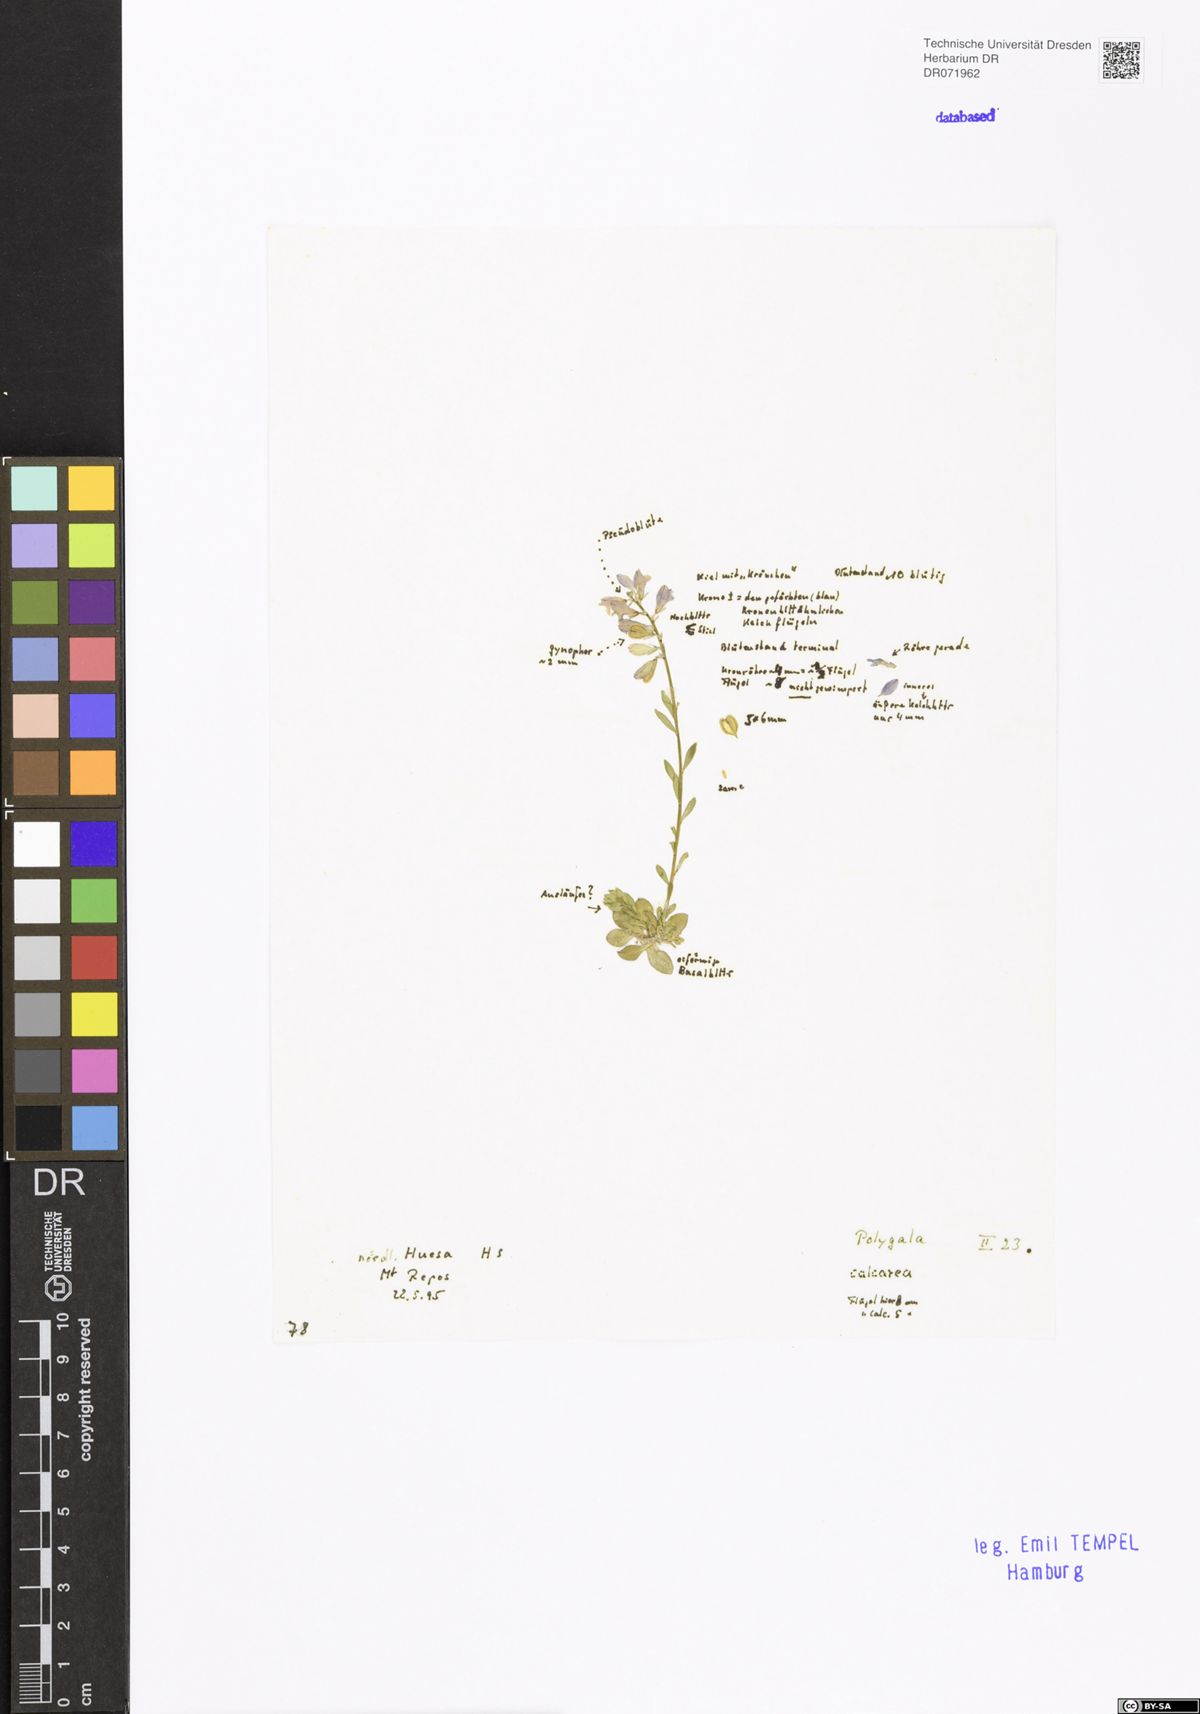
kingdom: Plantae
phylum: Tracheophyta
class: Magnoliopsida
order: Fabales
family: Polygalaceae
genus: Polygala
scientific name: Polygala calcarea
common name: Chalk milkwort
